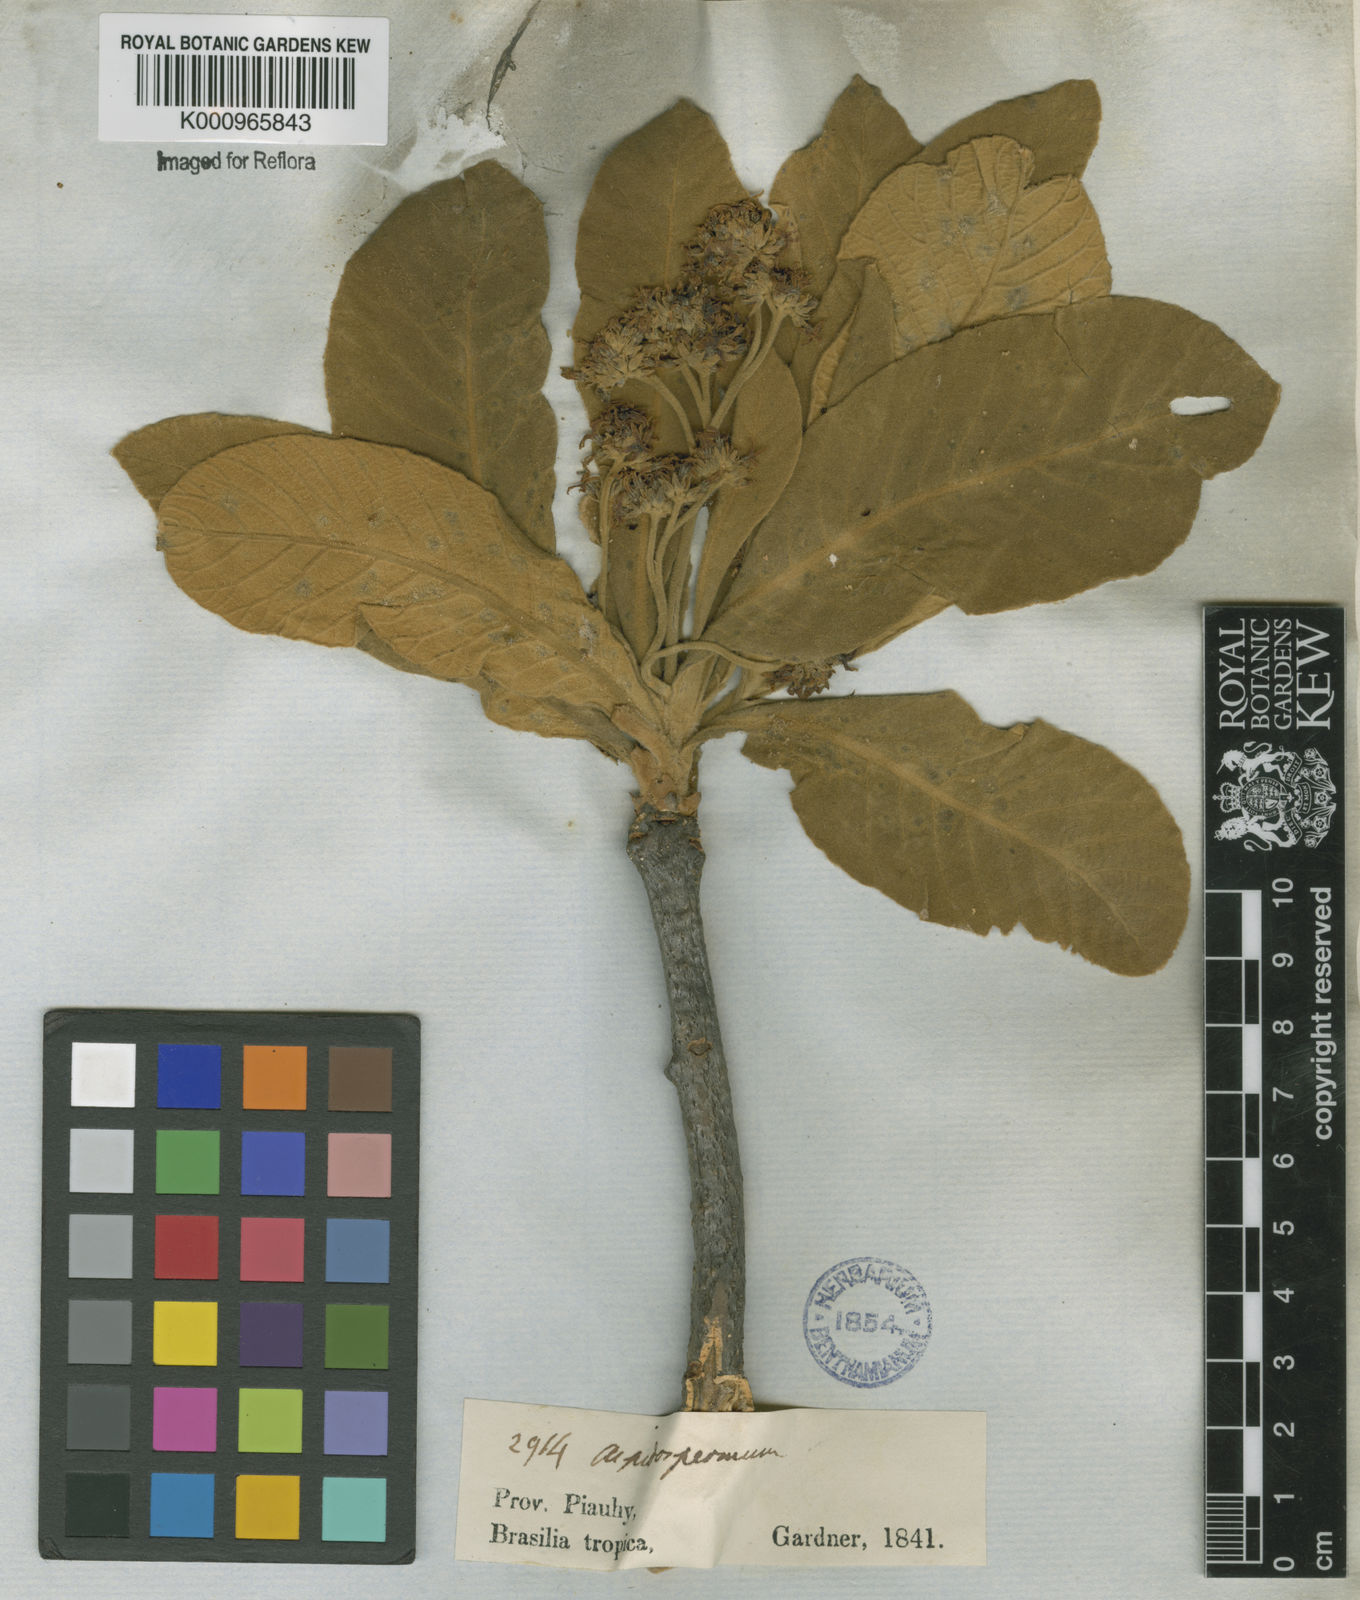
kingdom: Plantae
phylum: Tracheophyta
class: Magnoliopsida
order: Gentianales
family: Apocynaceae
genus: Aspidosperma
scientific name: Aspidosperma tomentosum
